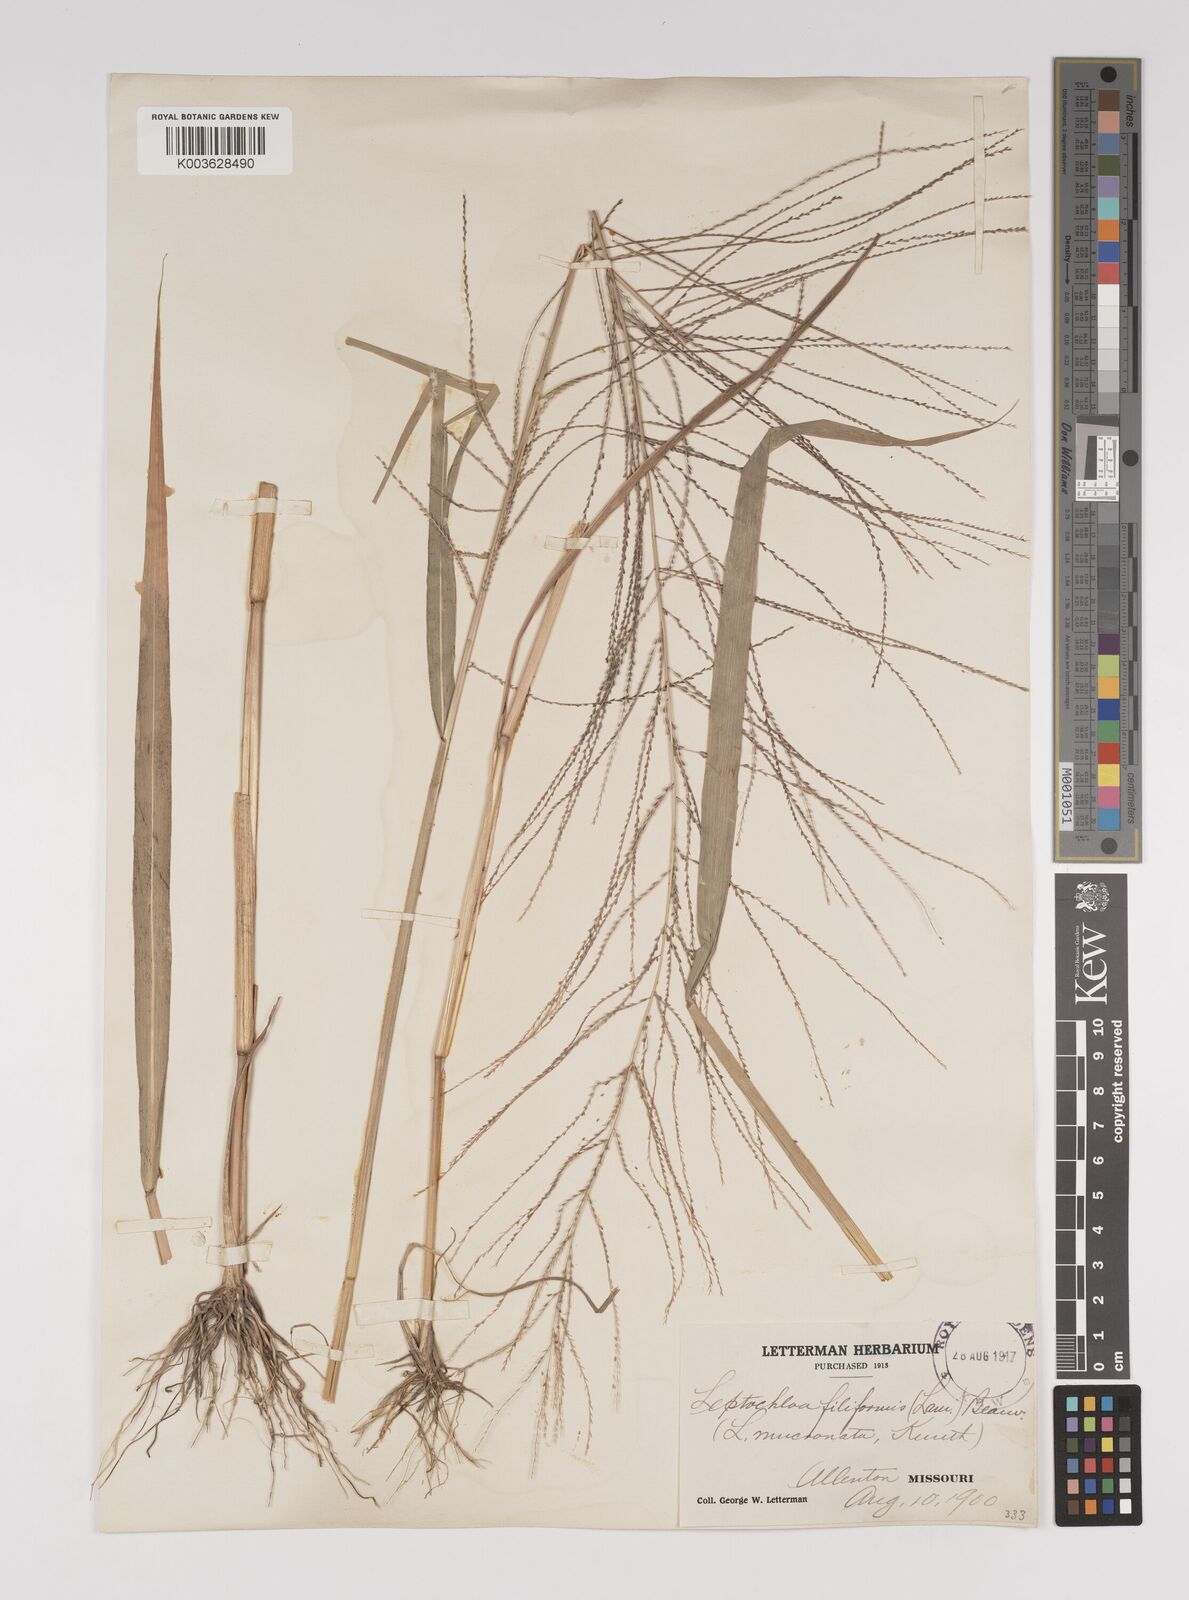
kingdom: Plantae
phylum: Tracheophyta
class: Liliopsida
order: Poales
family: Poaceae
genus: Leptochloa
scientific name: Leptochloa panicea
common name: Mucronate sprangletop
